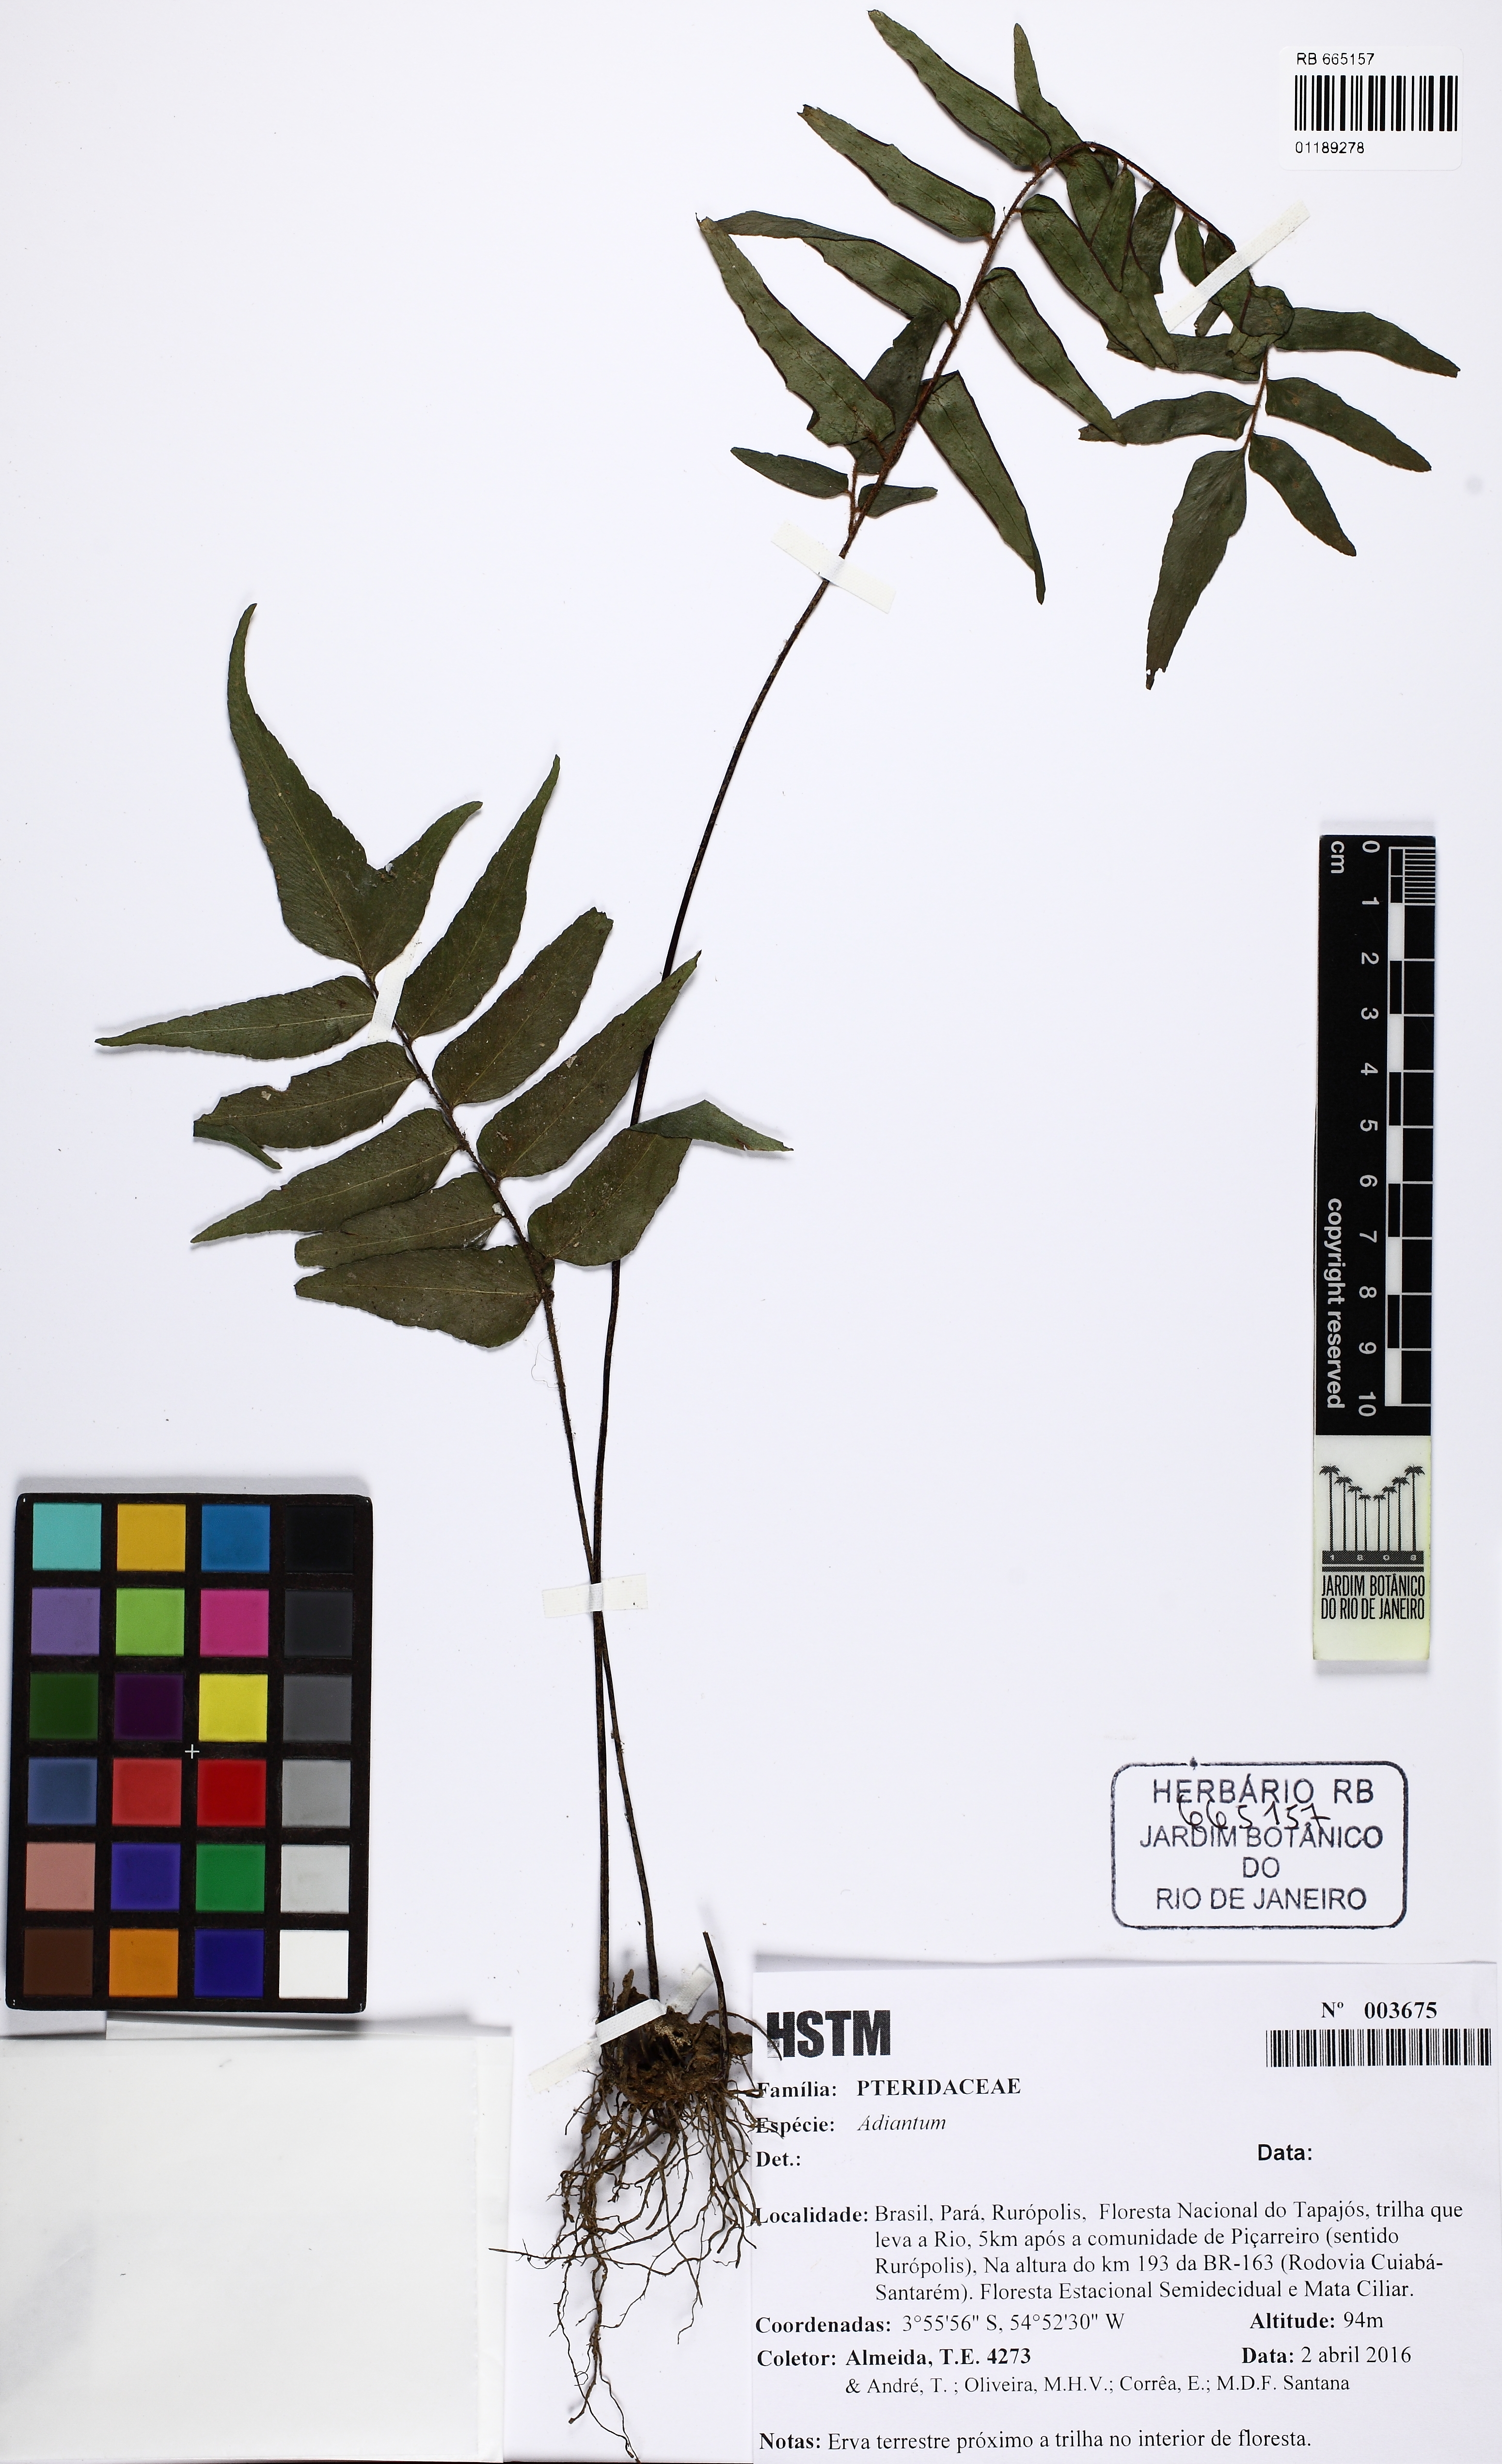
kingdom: Plantae
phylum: Tracheophyta
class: Polypodiopsida
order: Polypodiales
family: Pteridaceae
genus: Adiantum
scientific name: Adiantum
